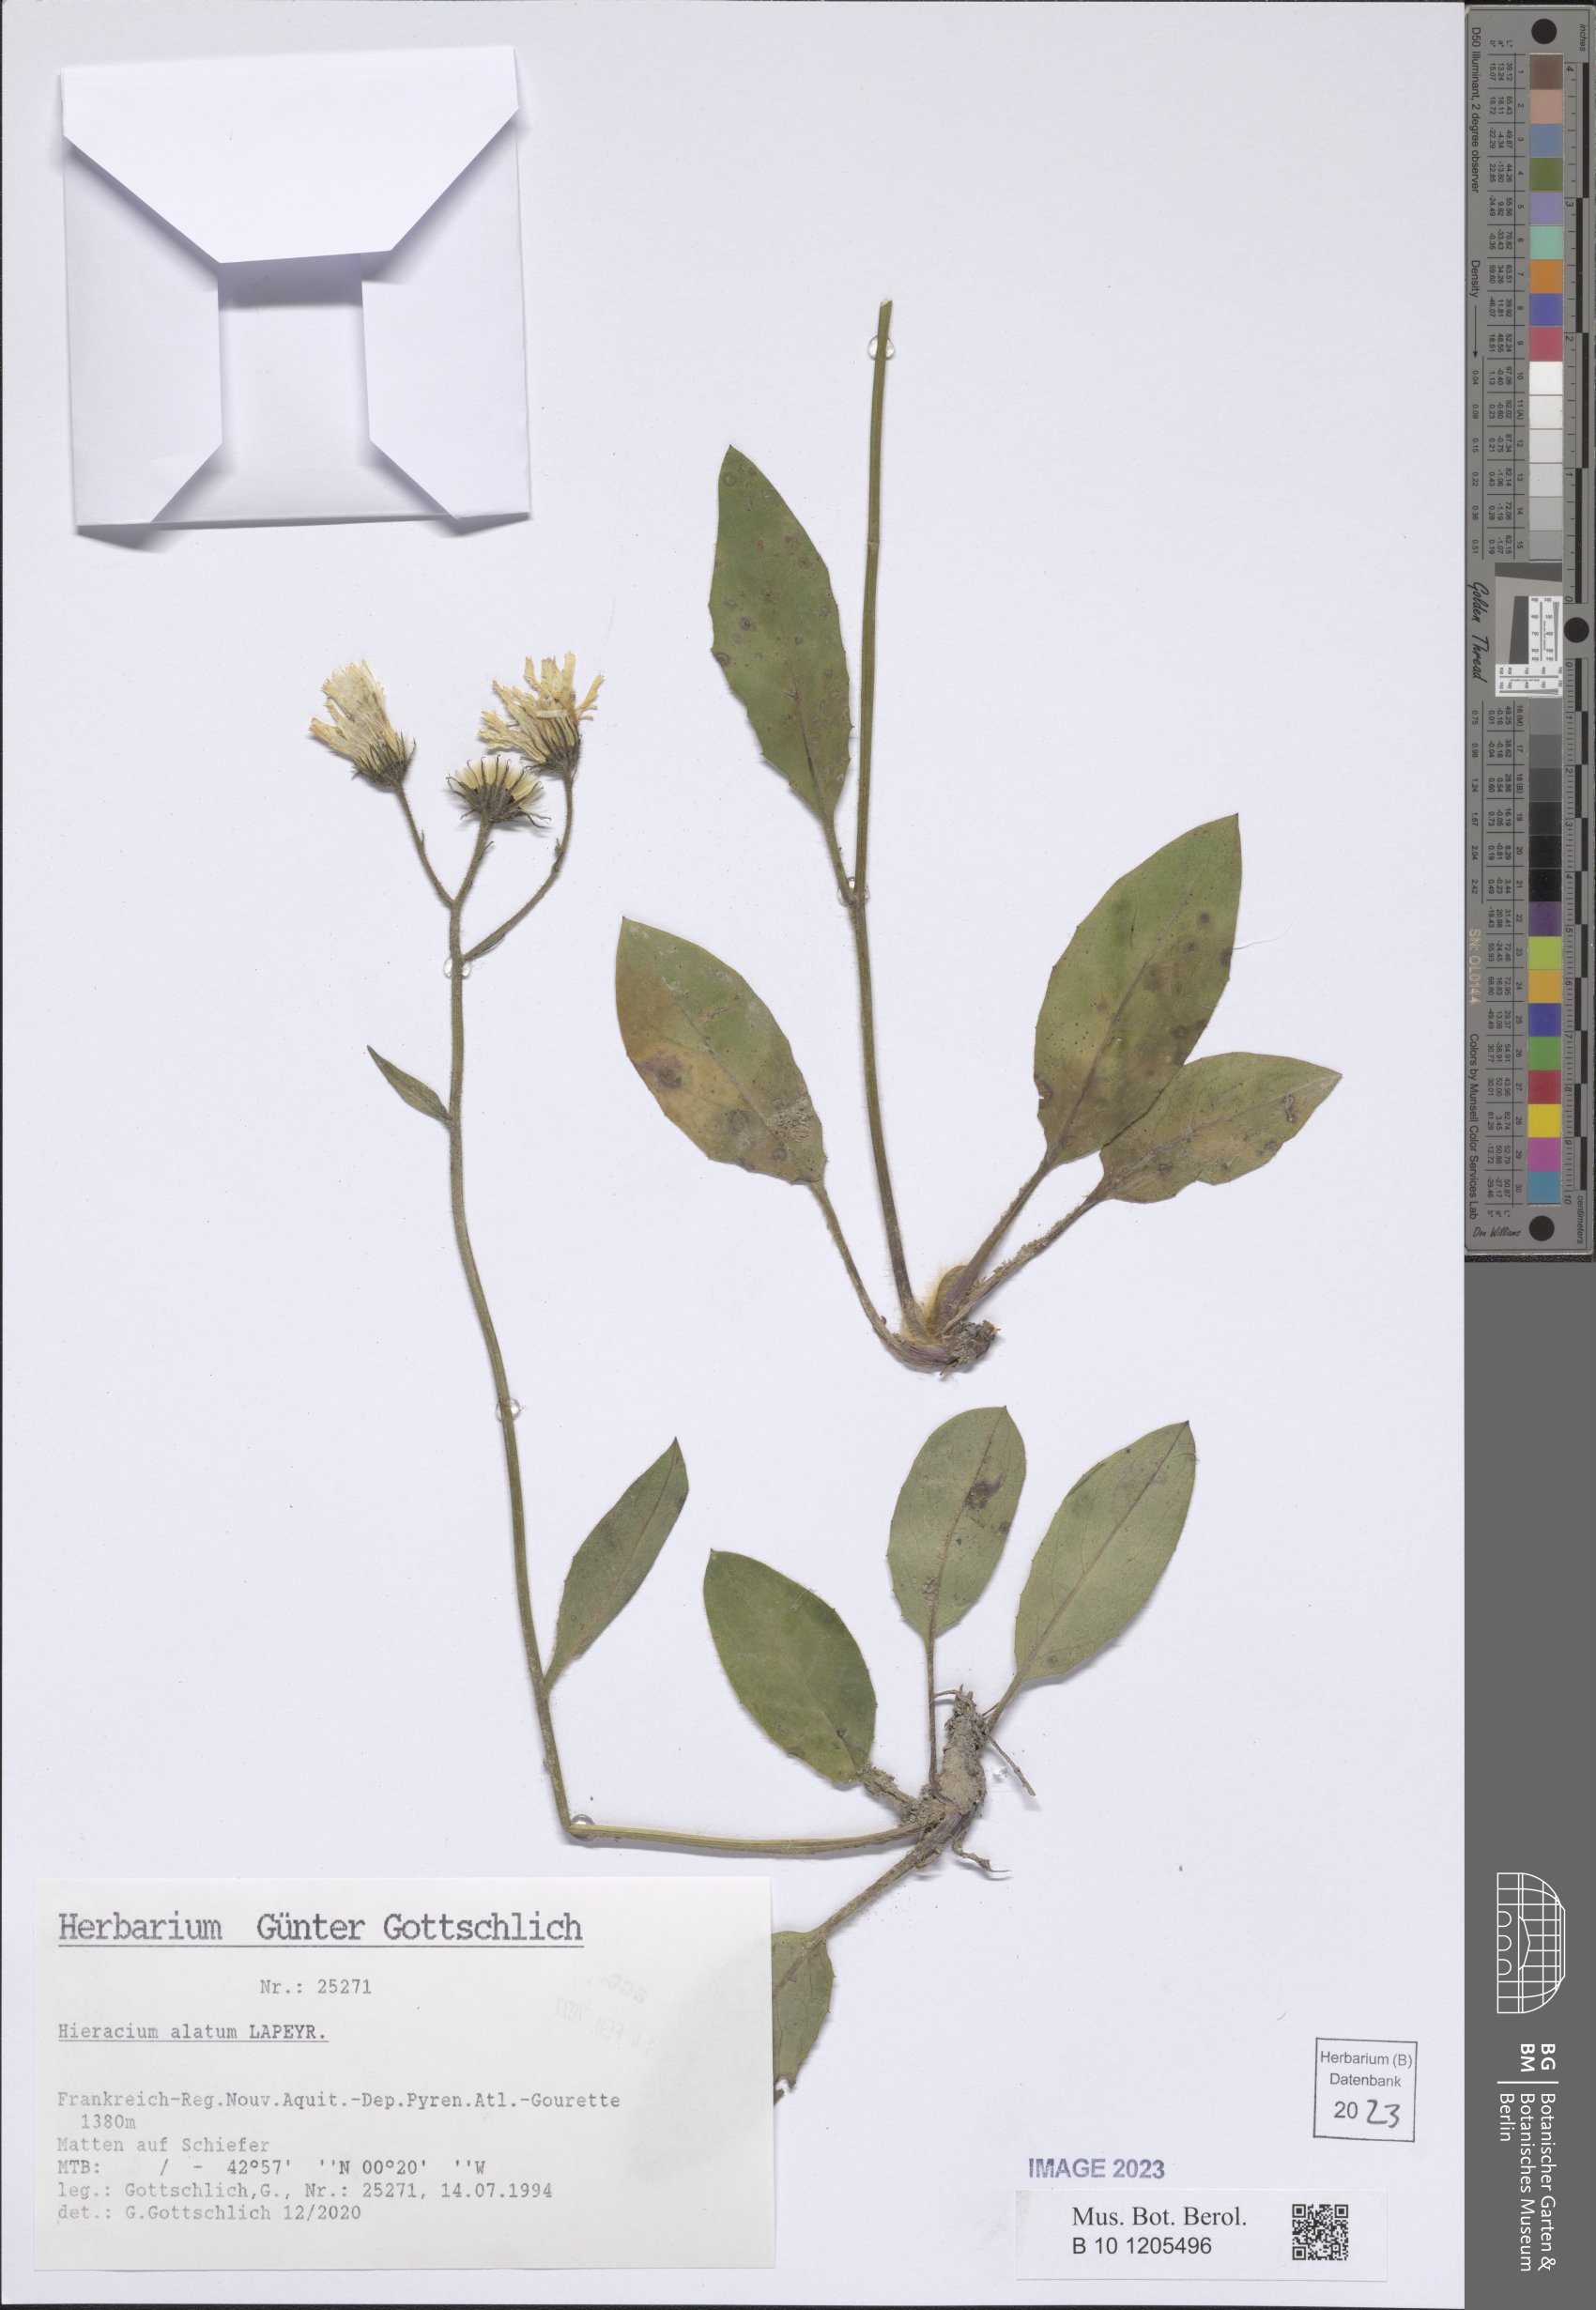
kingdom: Plantae
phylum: Tracheophyta
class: Magnoliopsida
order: Asterales
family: Asteraceae
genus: Hieracium
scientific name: Hieracium alatum
